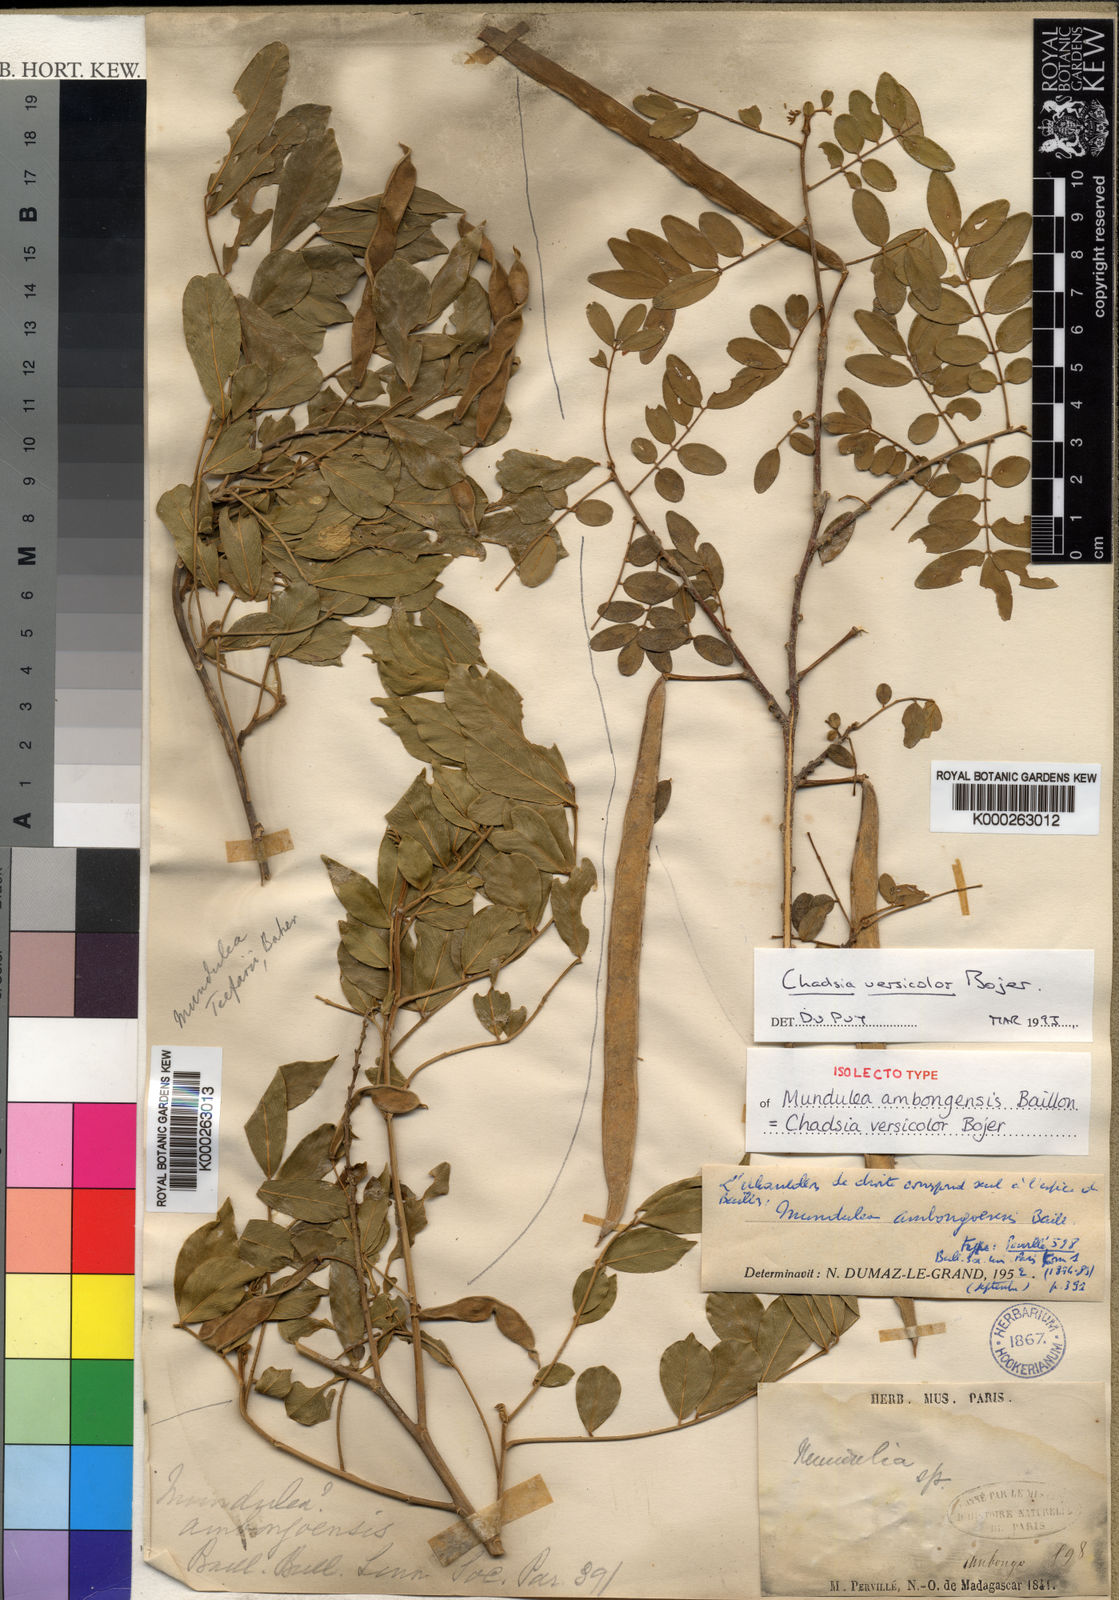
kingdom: Plantae
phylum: Tracheophyta
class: Magnoliopsida
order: Fabales
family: Fabaceae
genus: Chadsia
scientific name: Chadsia versicolor
